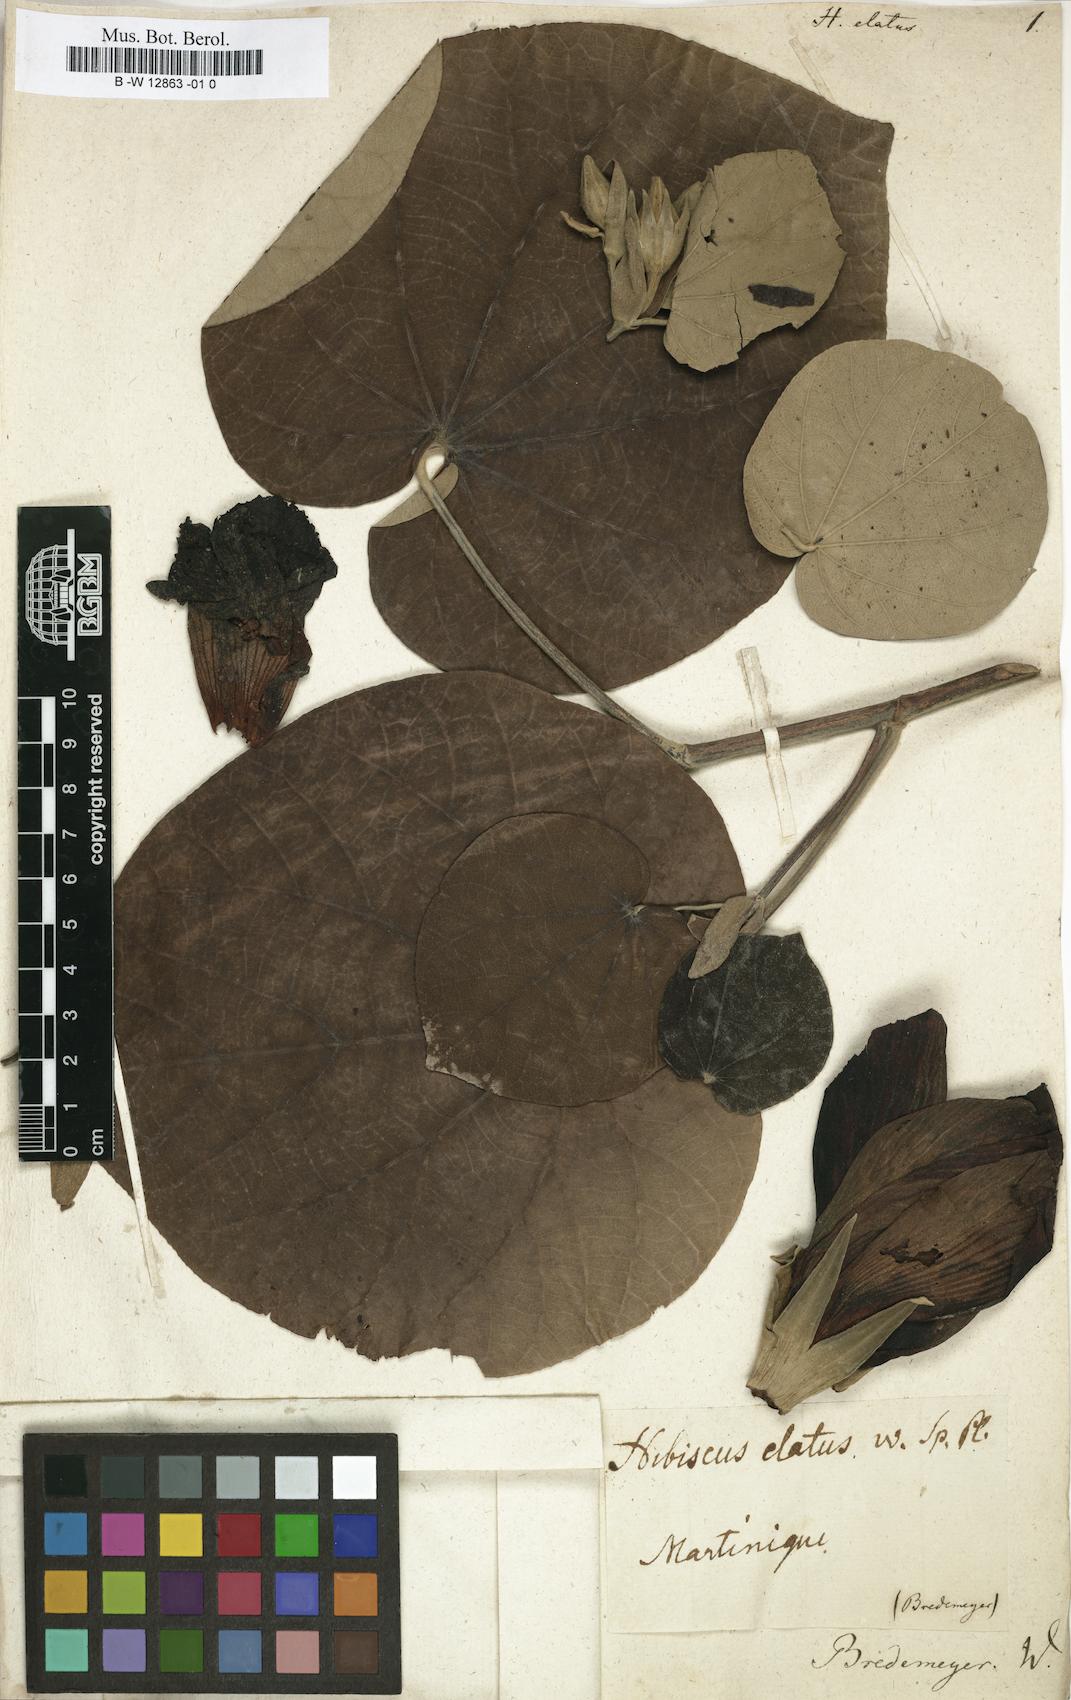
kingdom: Plantae
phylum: Tracheophyta
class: Magnoliopsida
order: Malvales
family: Malvaceae
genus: Talipariti
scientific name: Talipariti elatum
